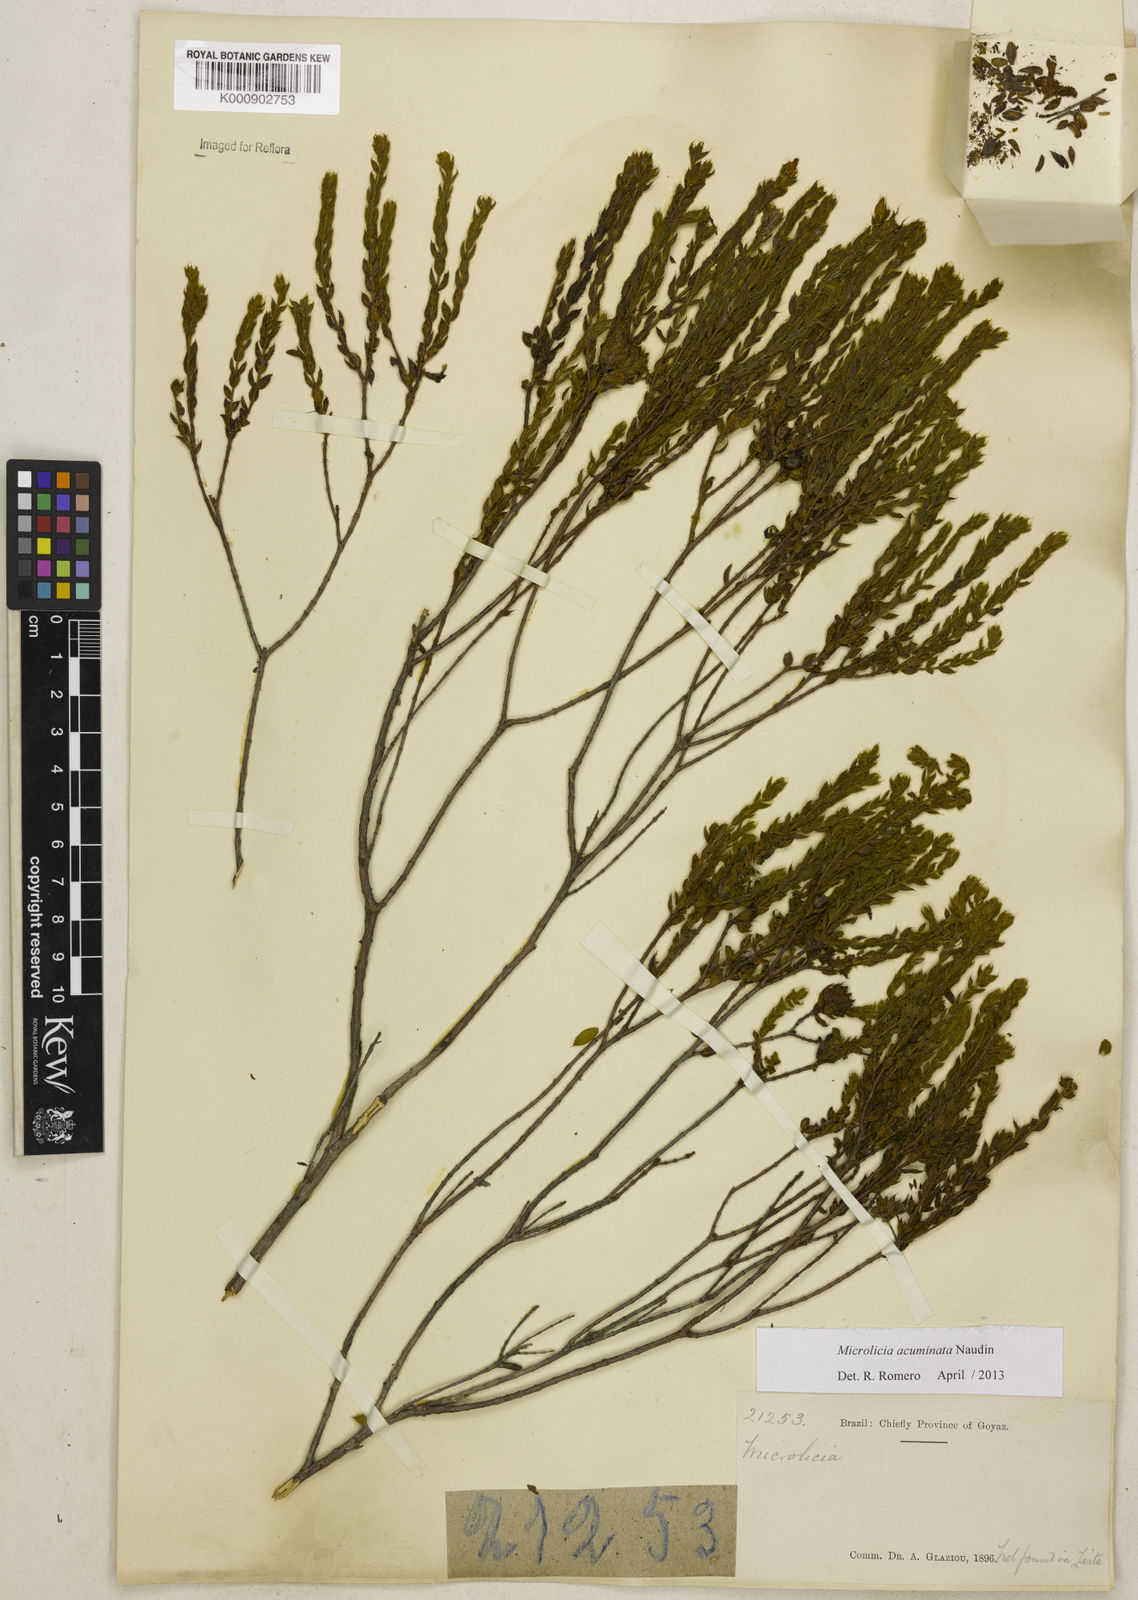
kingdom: Plantae
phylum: Tracheophyta
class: Magnoliopsida
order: Myrtales
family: Melastomataceae
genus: Microlicia
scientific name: Microlicia hirticalyx
